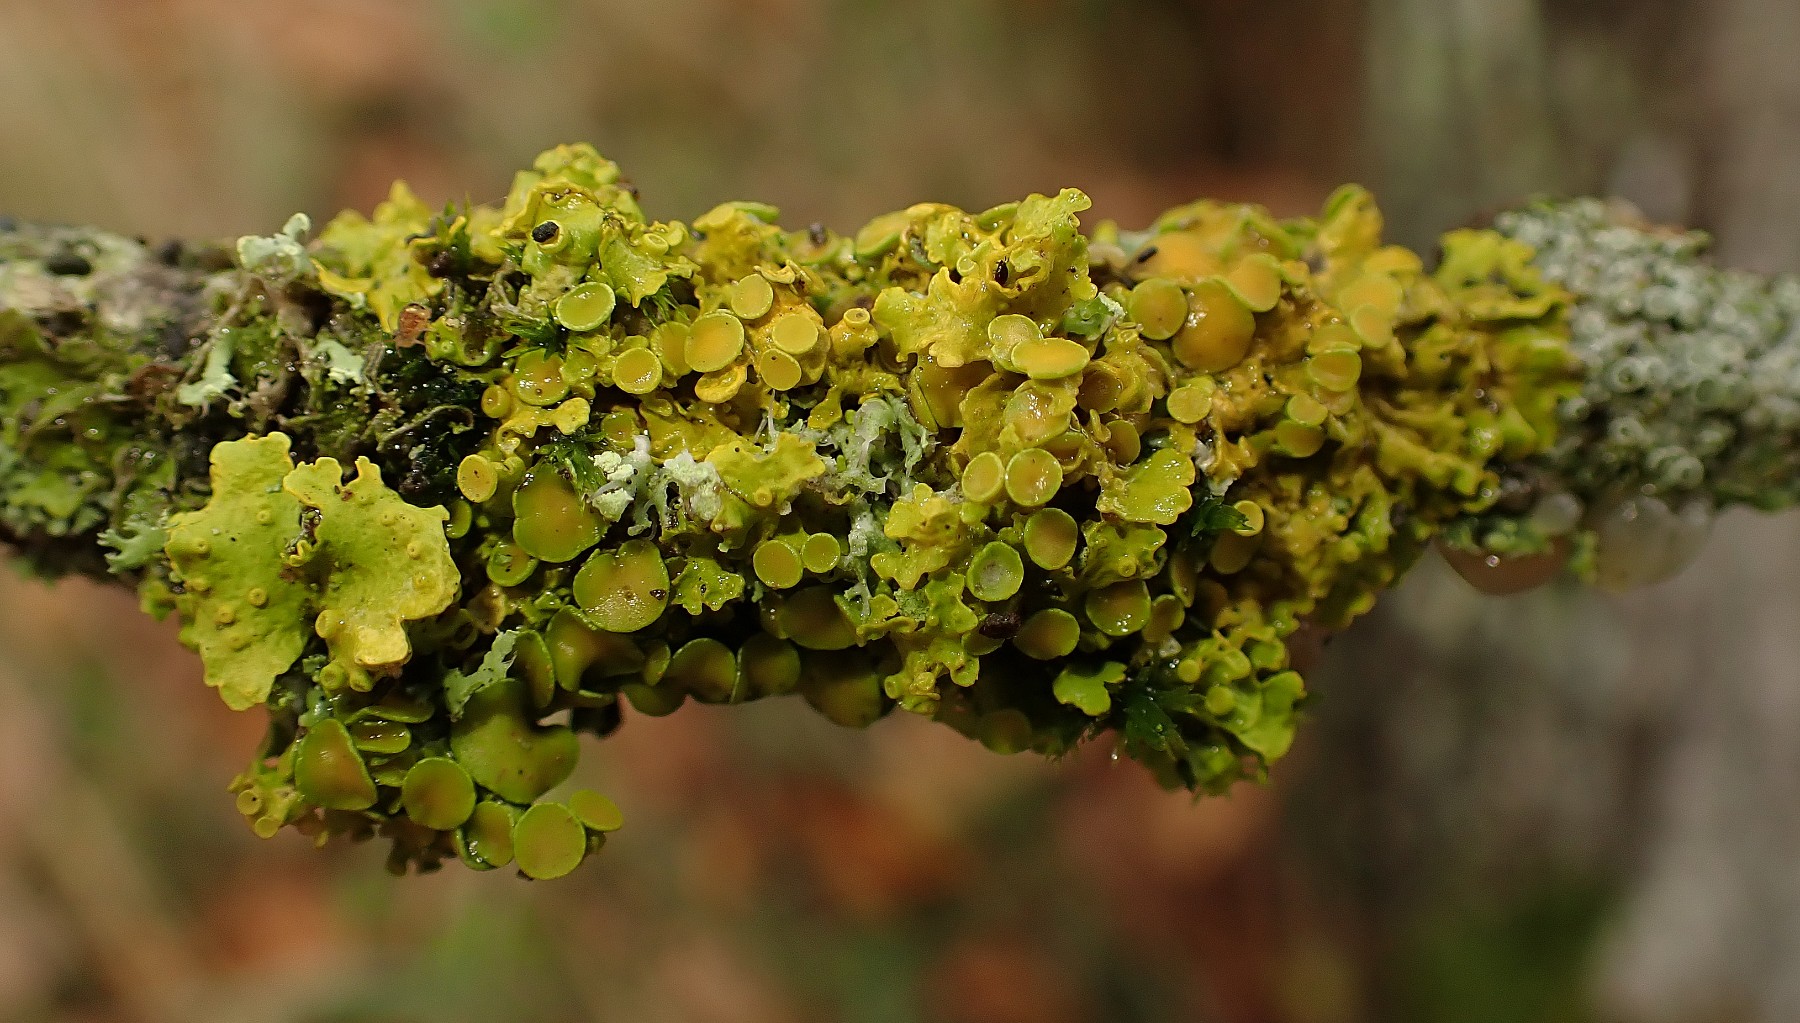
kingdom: Fungi
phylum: Ascomycota
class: Lecanoromycetes
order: Teloschistales
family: Teloschistaceae
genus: Xanthoria
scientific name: Xanthoria parietina
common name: almindelig væggelav
